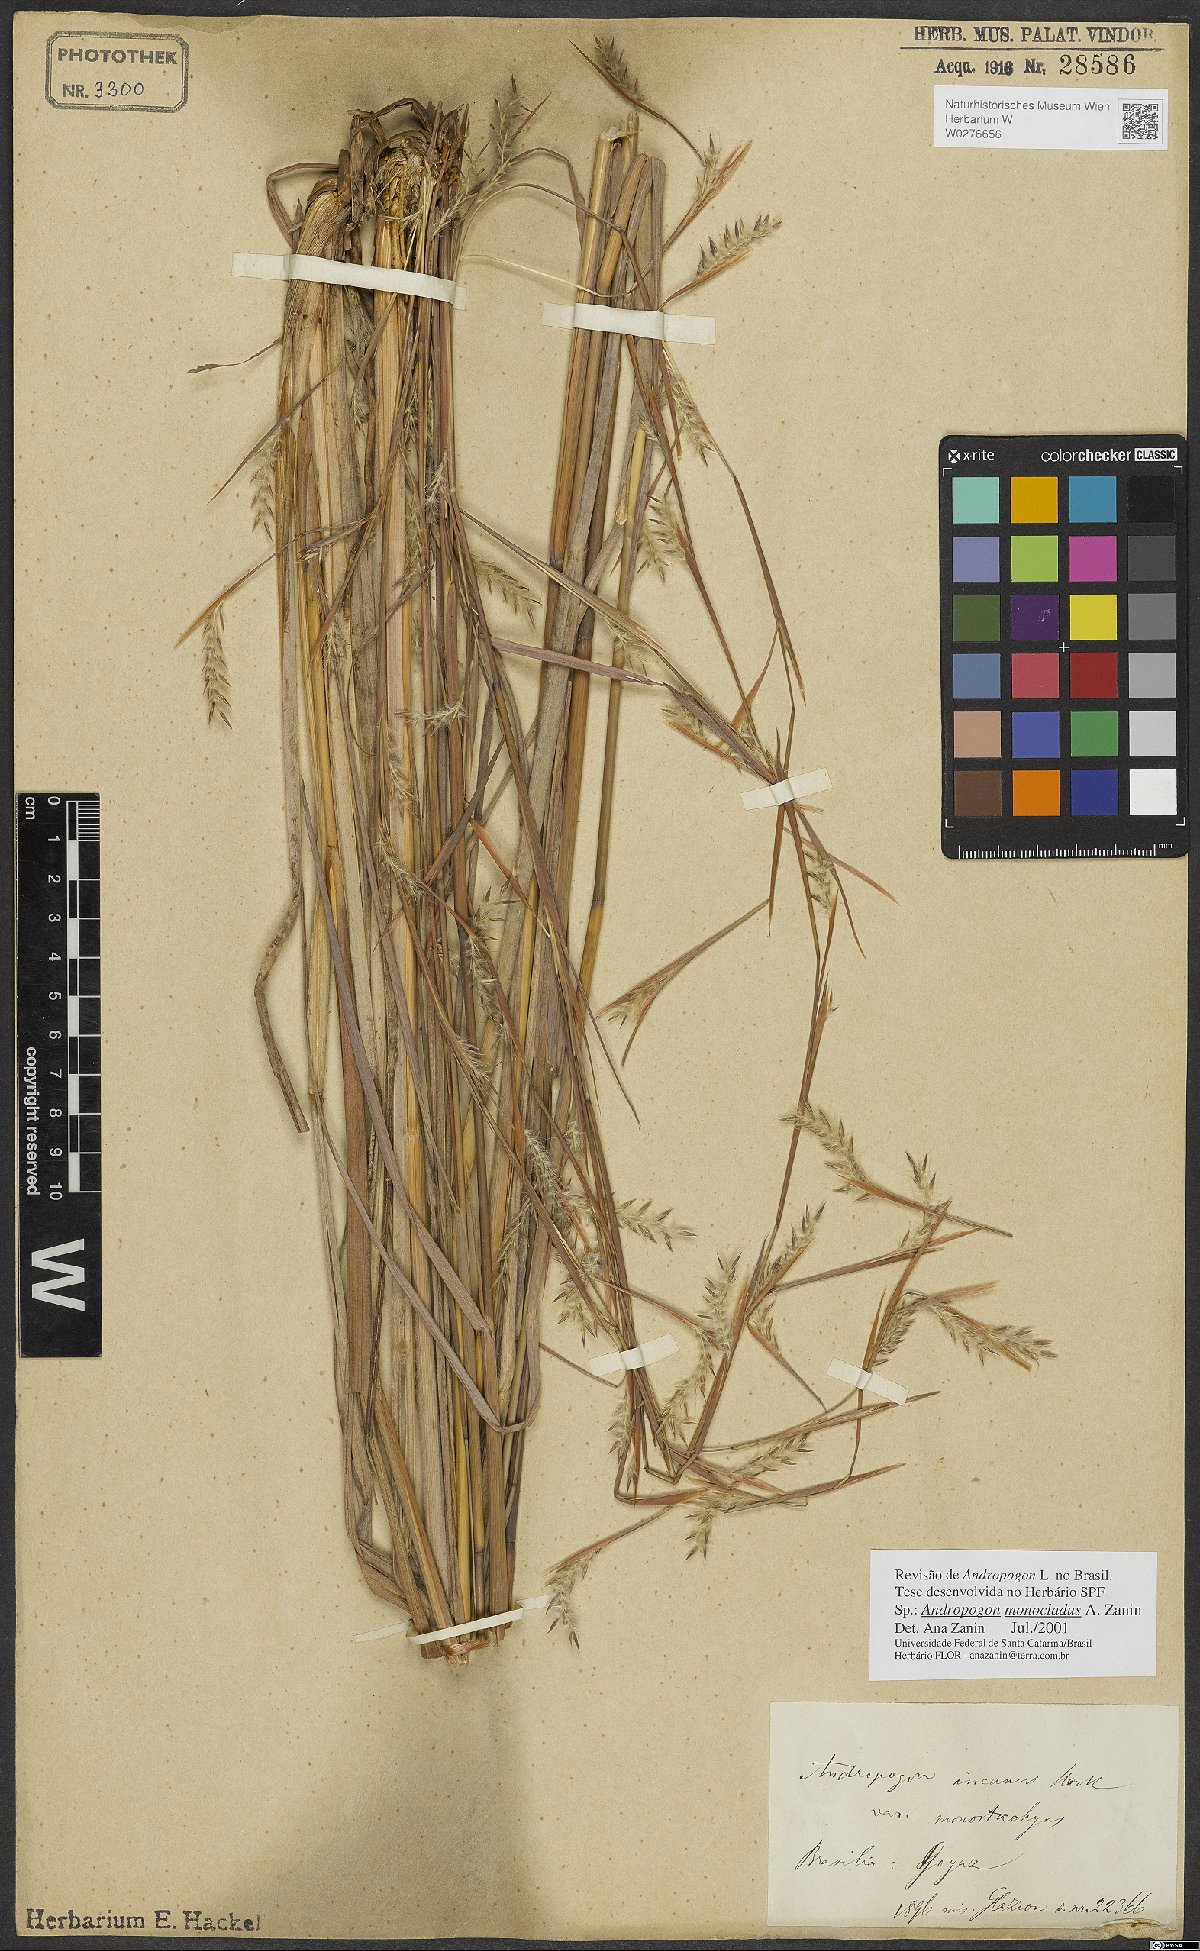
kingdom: Plantae
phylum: Tracheophyta
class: Liliopsida
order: Poales
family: Poaceae
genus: Andropogon
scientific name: Andropogon monocladus
